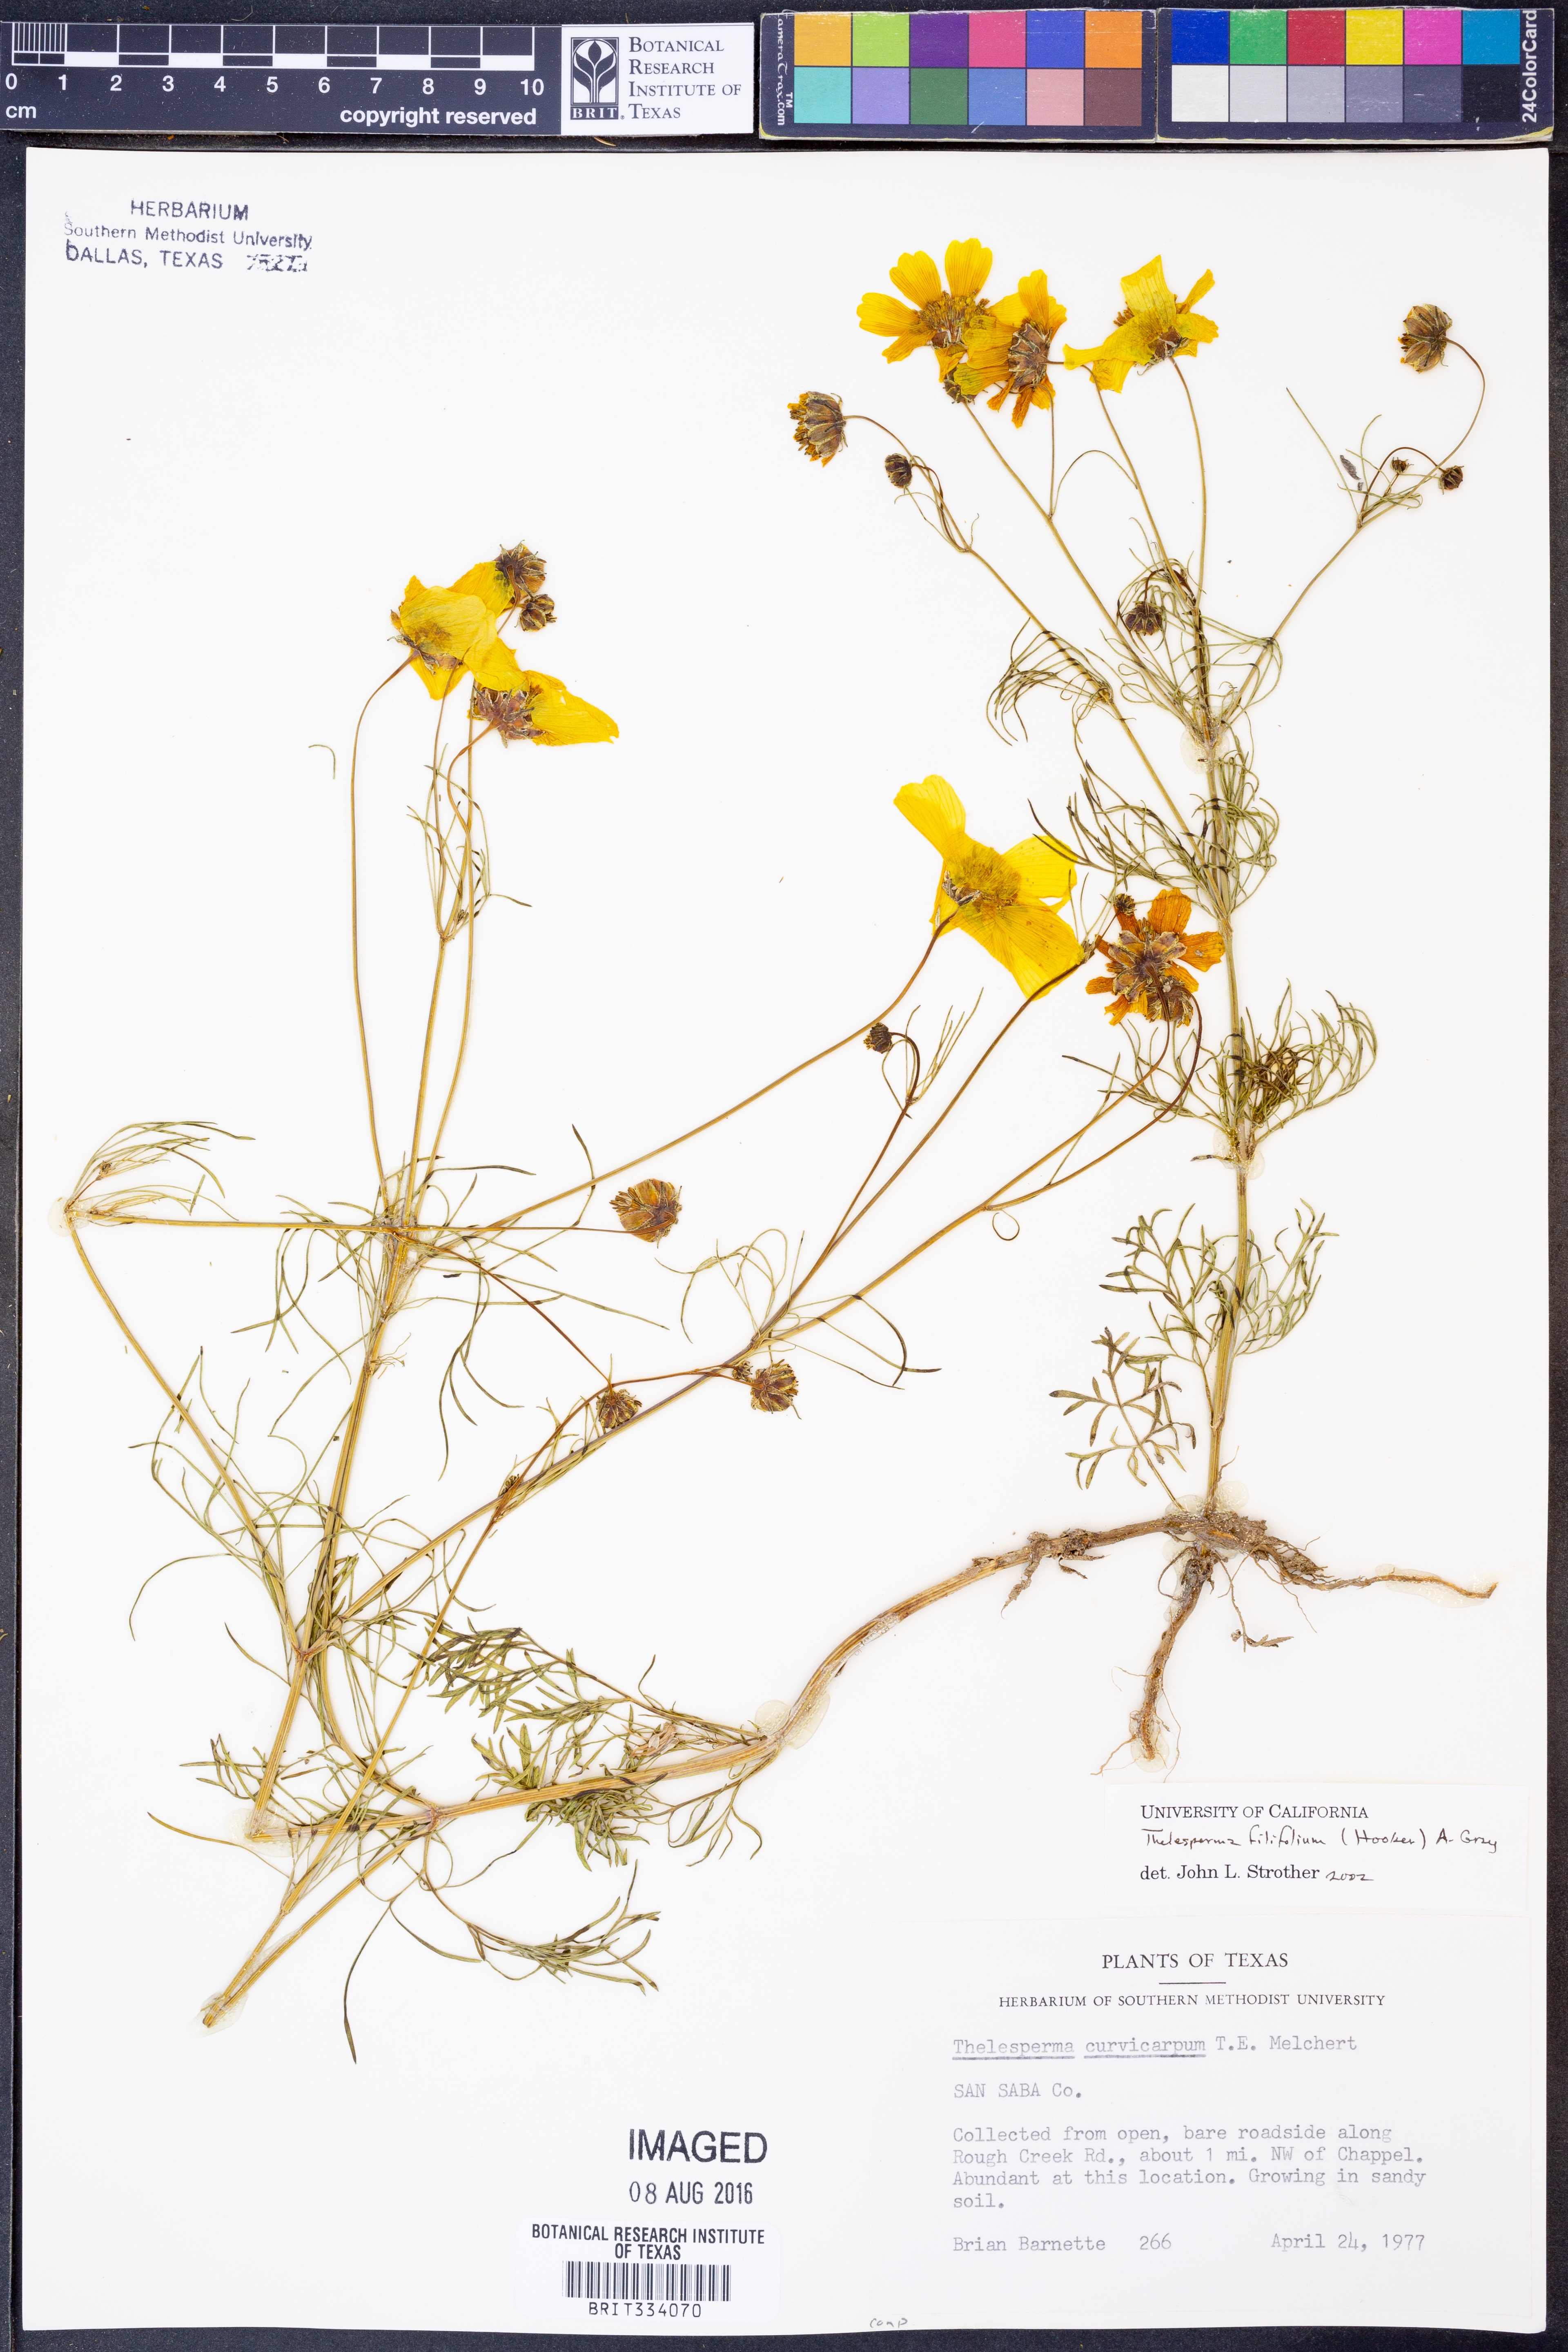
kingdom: Plantae
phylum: Tracheophyta
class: Magnoliopsida
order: Asterales
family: Asteraceae
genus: Thelesperma
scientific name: Thelesperma filifolium
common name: Stiff greenthread
